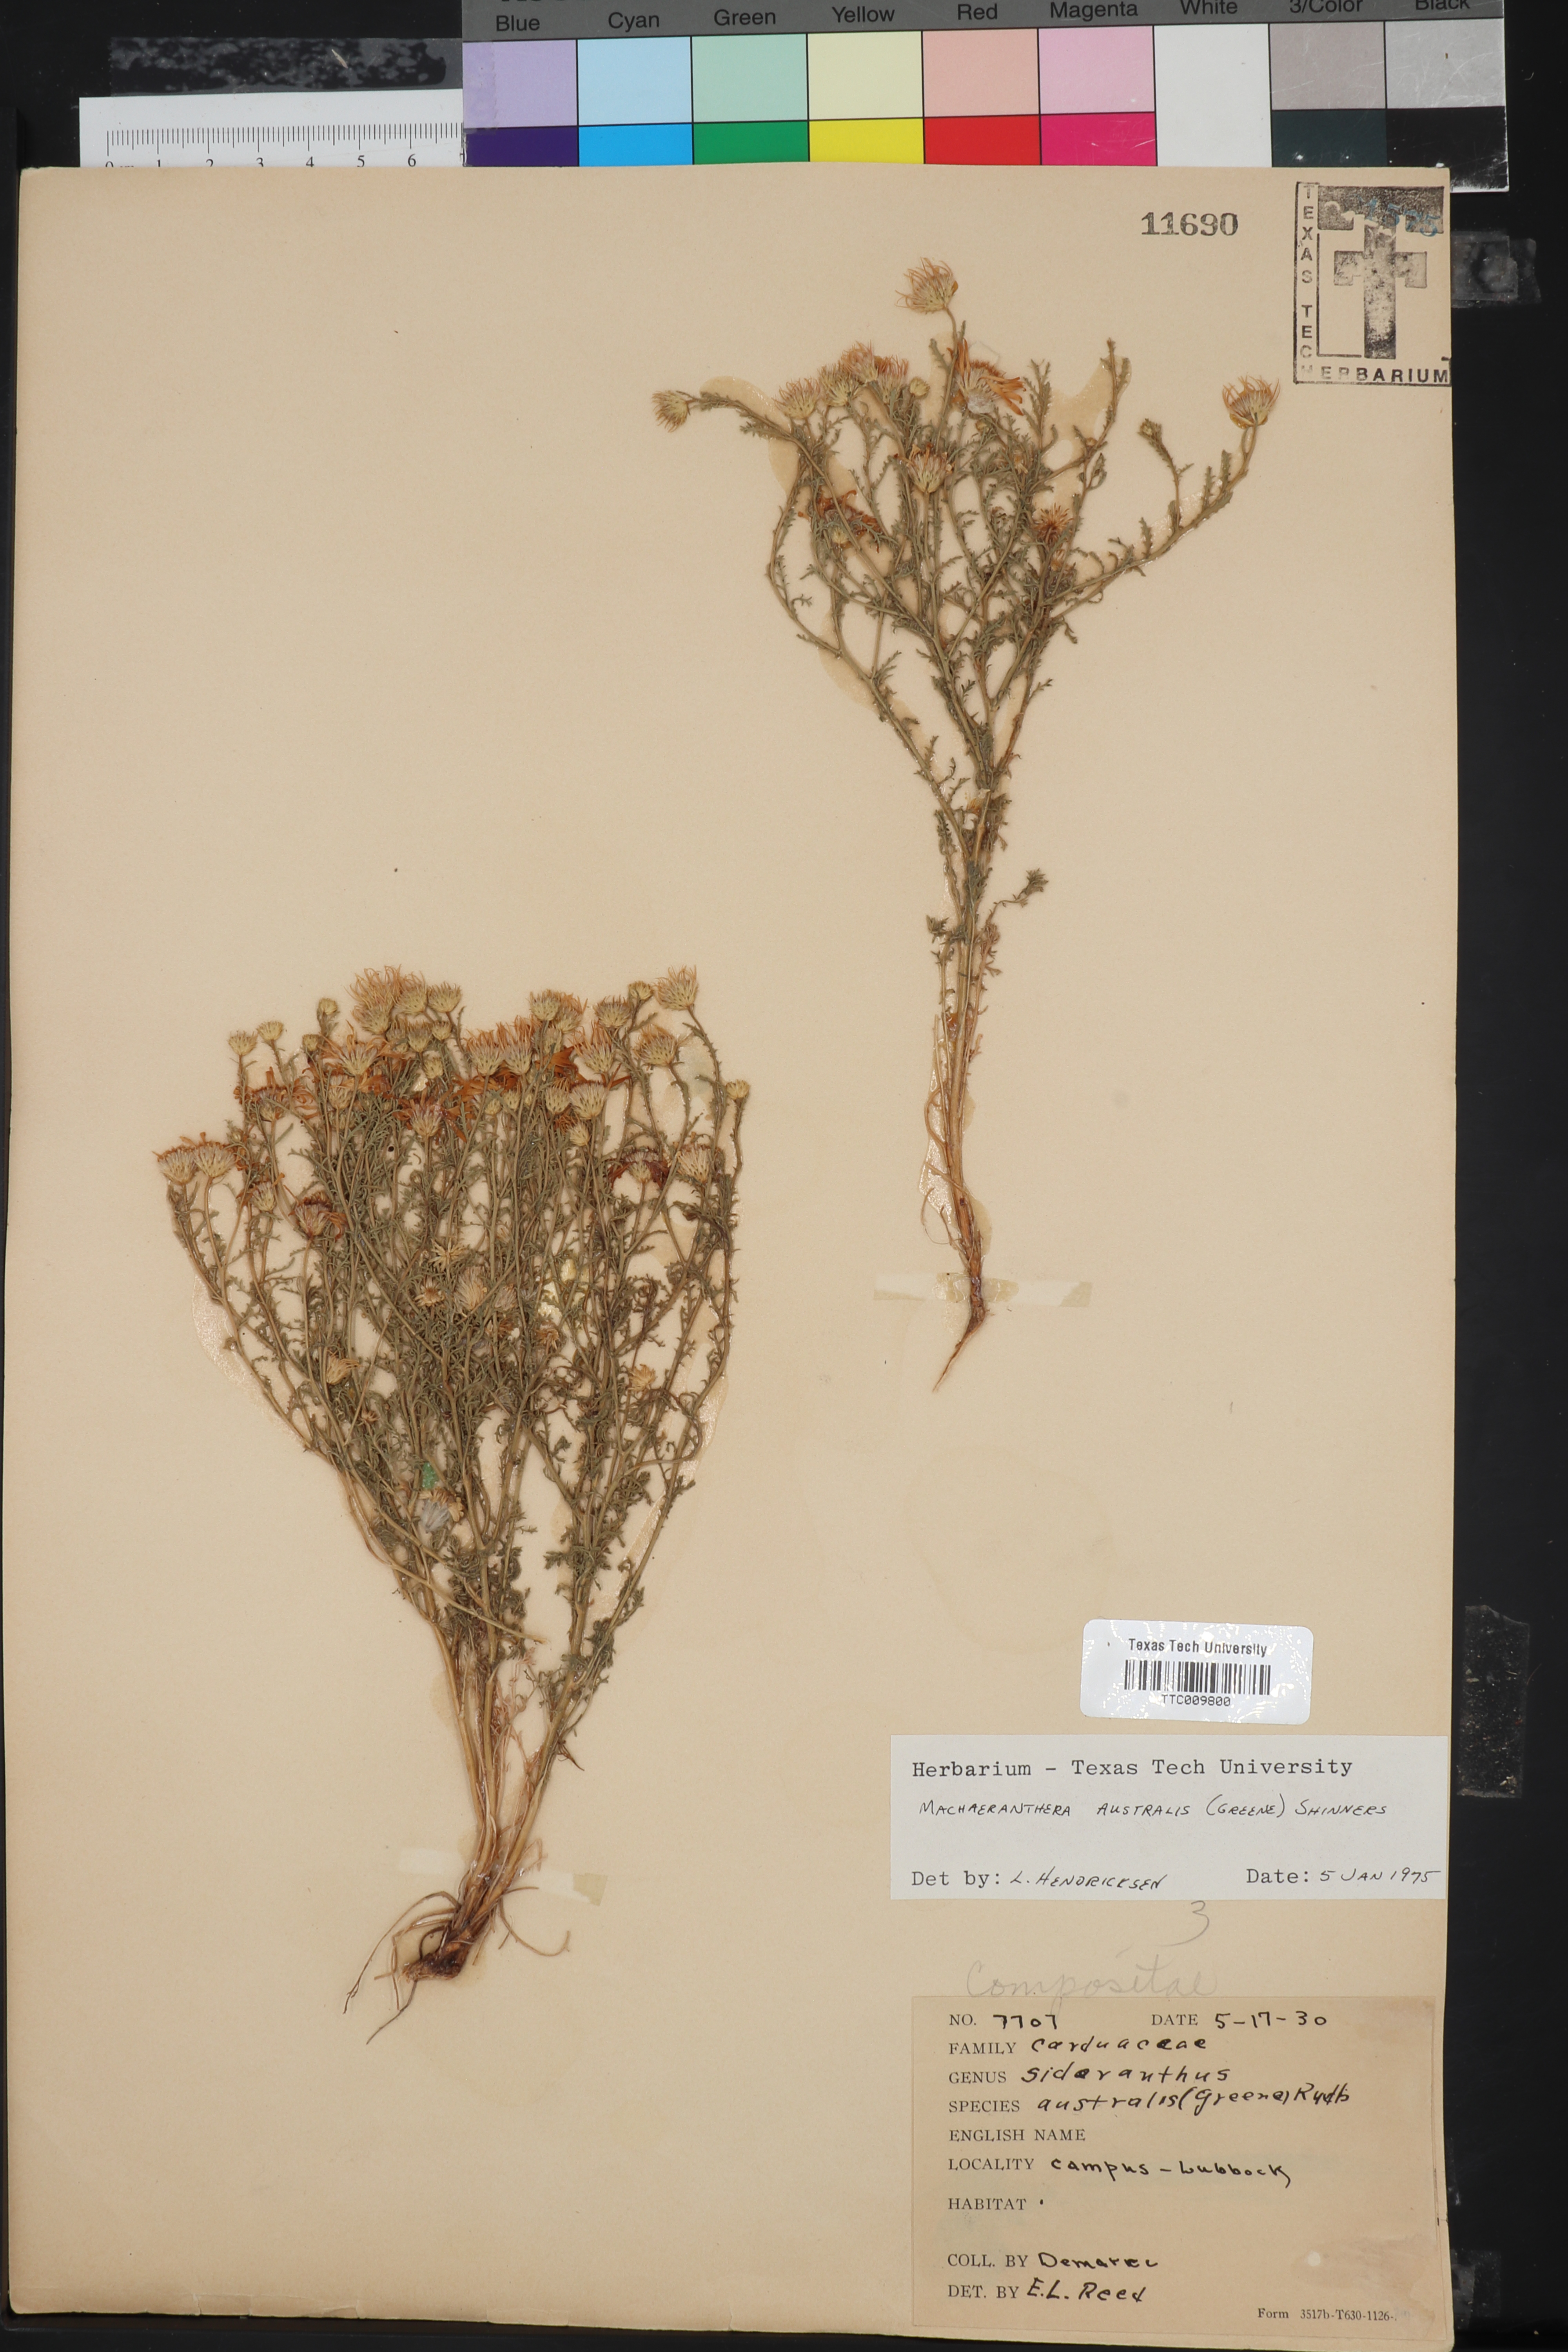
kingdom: Plantae
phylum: Tracheophyta
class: Magnoliopsida
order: Asterales
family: Asteraceae
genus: Xanthisma
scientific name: Xanthisma spinulosum
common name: Spiny goldenweed
